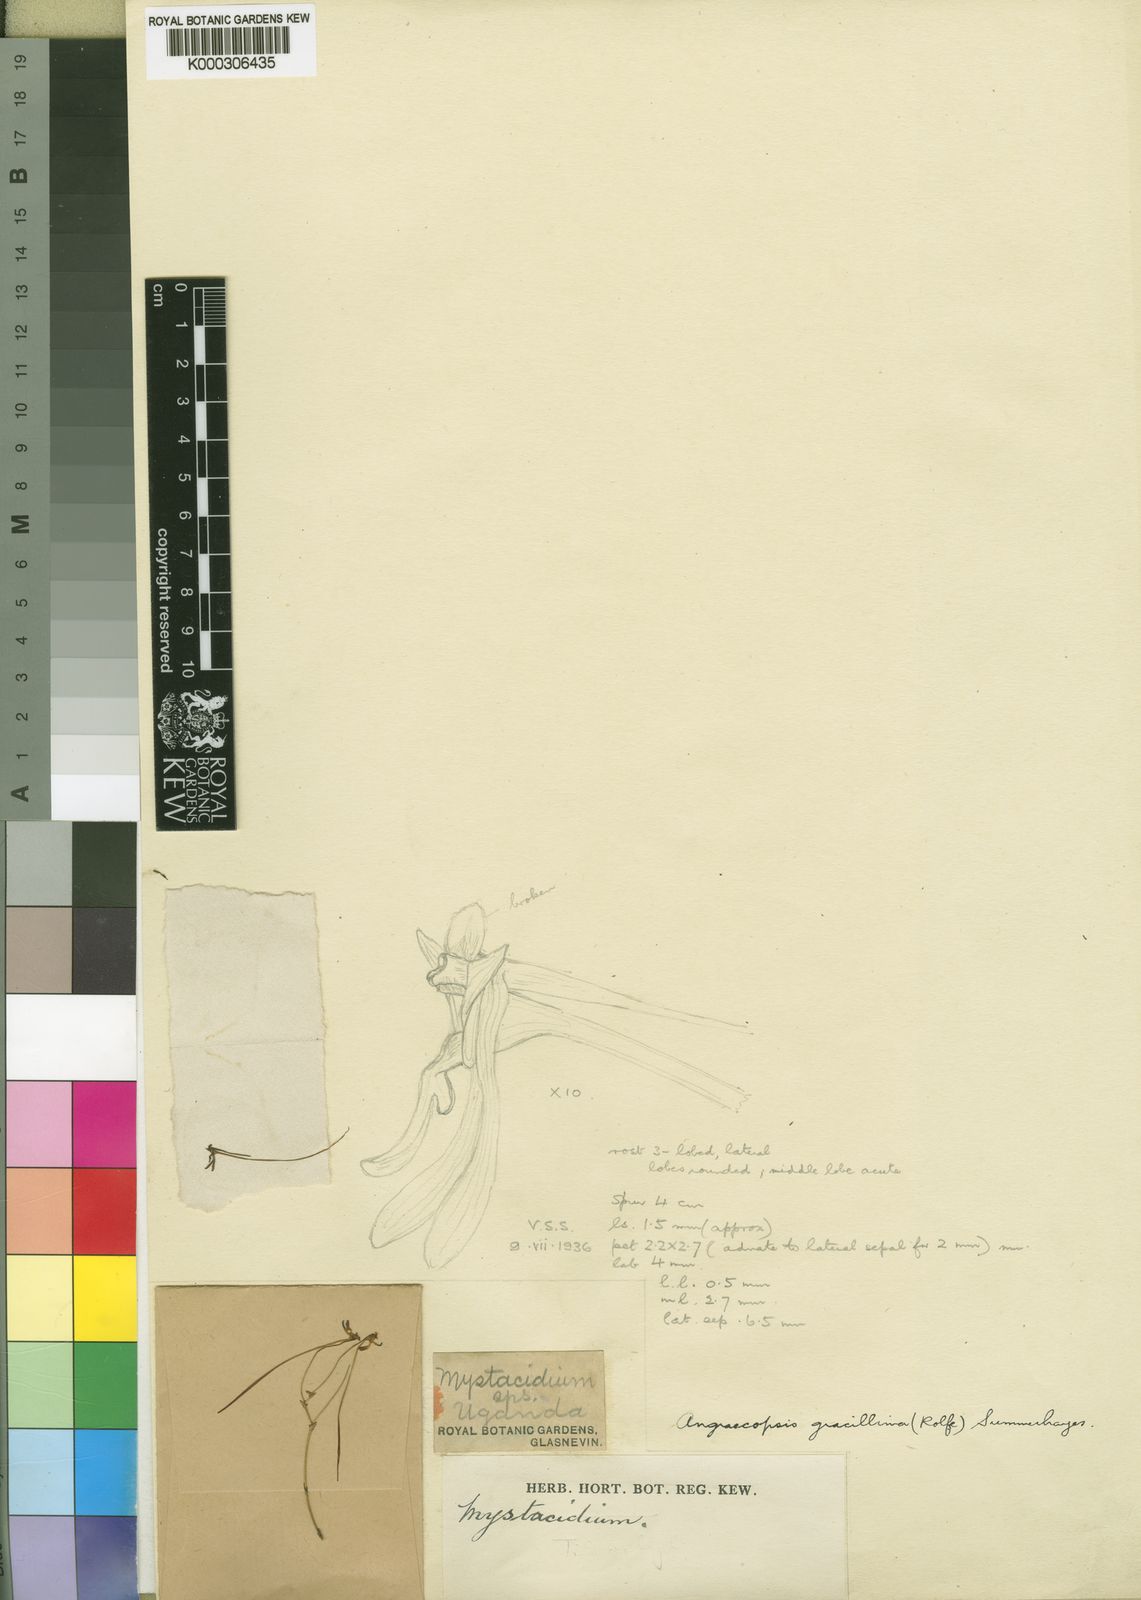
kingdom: Plantae
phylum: Tracheophyta
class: Liliopsida
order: Asparagales
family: Orchidaceae
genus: Angraecopsis
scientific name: Angraecopsis gracillima
